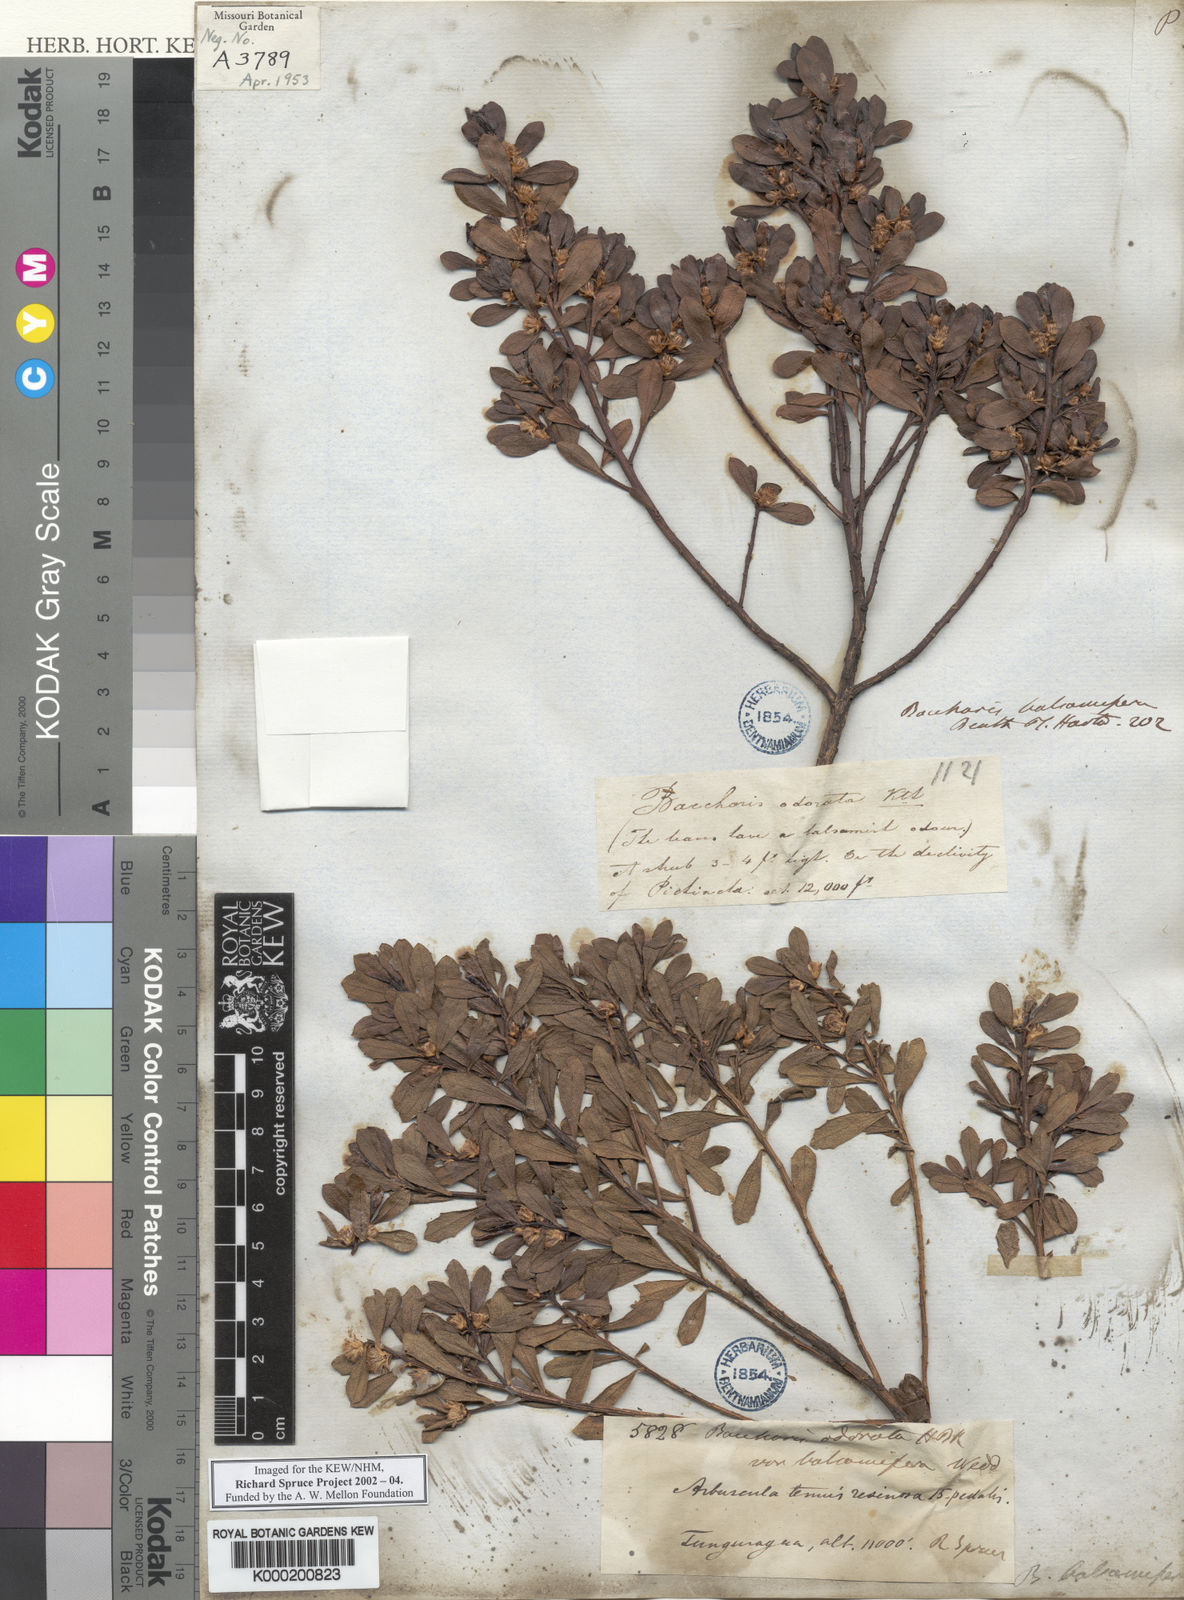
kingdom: Plantae
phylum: Tracheophyta
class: Magnoliopsida
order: Asterales
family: Asteraceae
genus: Baccharis
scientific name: Baccharis buxifolia
